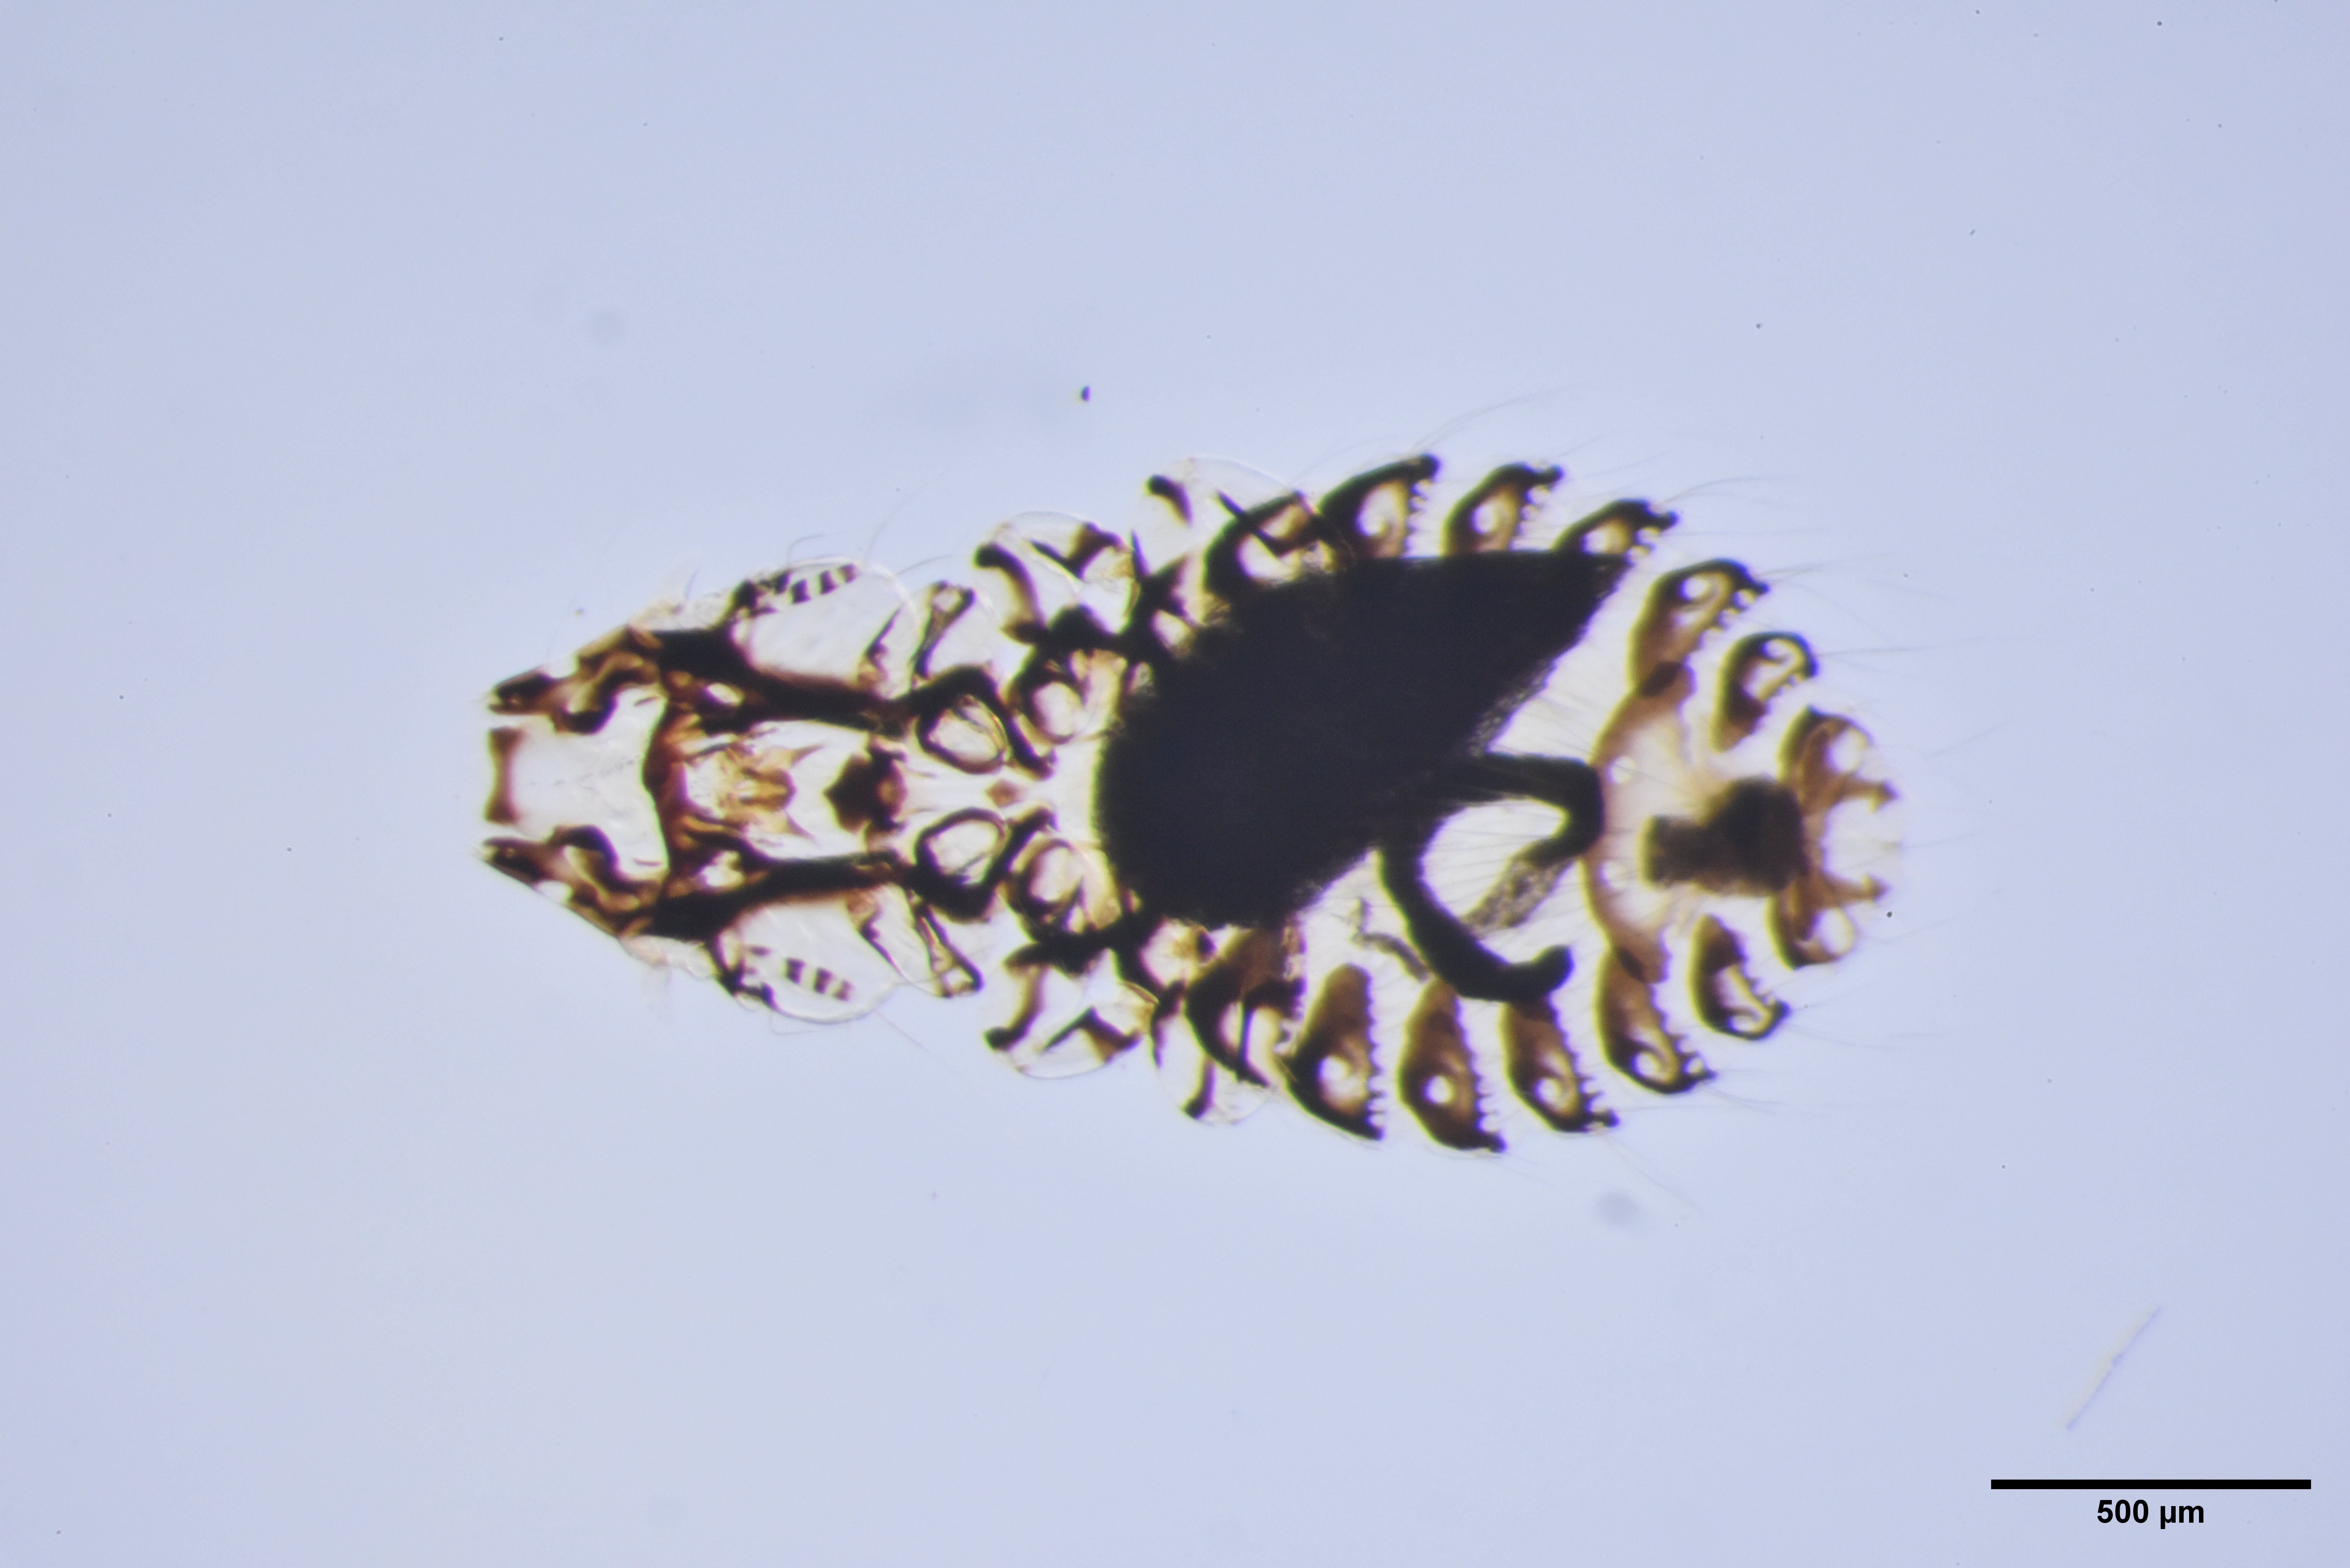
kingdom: Animalia
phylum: Arthropoda
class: Insecta
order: Psocodea
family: Philopteridae
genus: Philopterus
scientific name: Philopterus corvi
